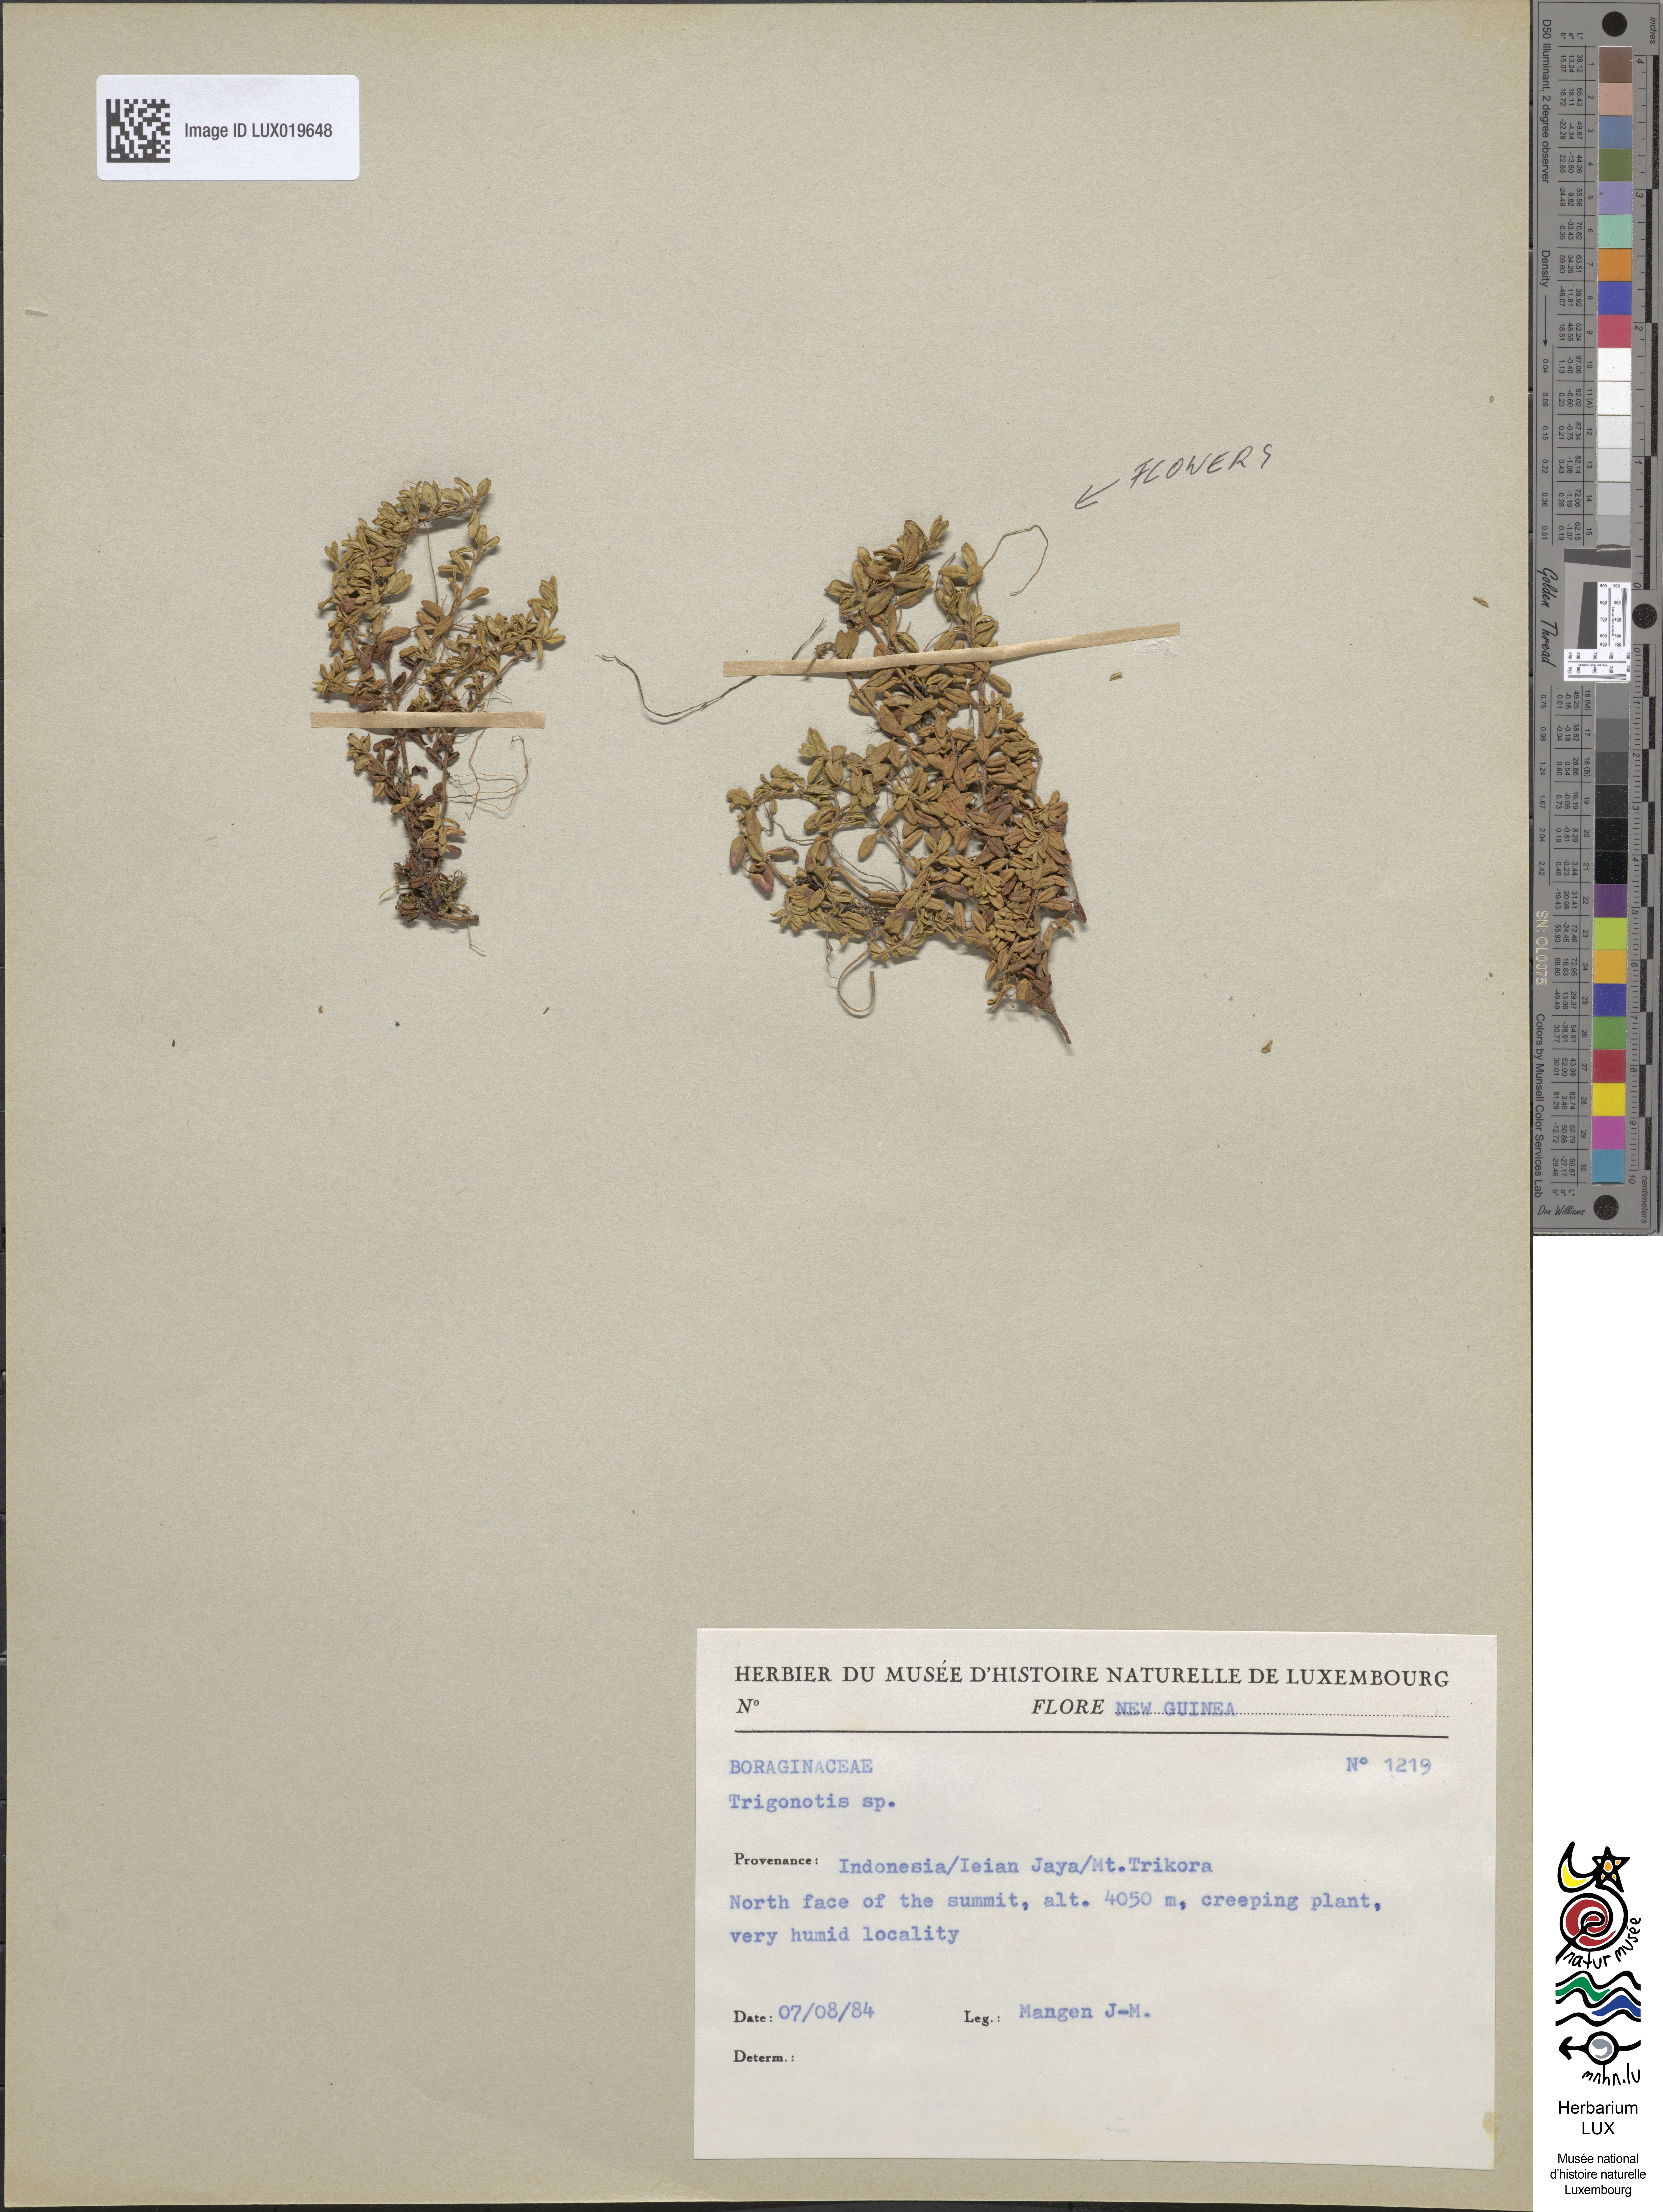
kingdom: Plantae
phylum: Tracheophyta
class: Magnoliopsida
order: Boraginales
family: Boraginaceae
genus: Trigonotis
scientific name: Trigonotis
